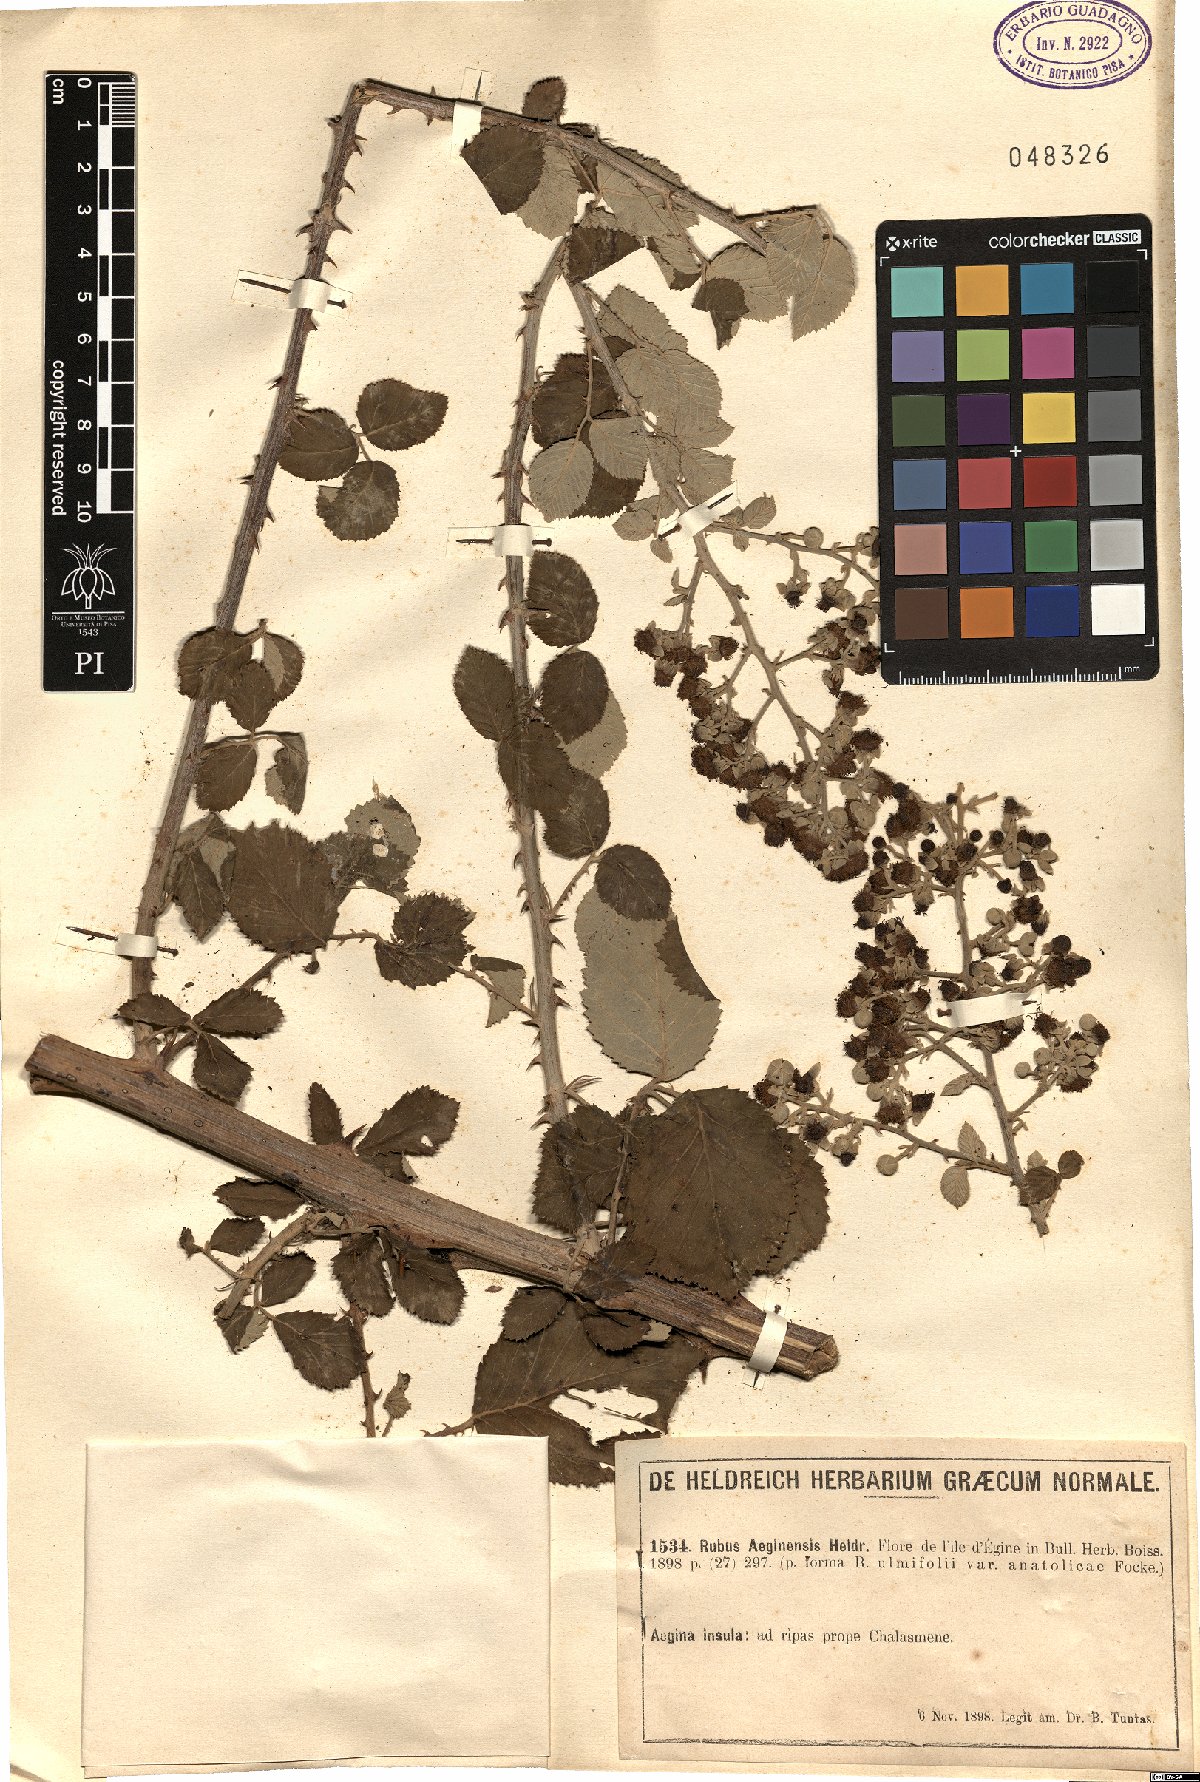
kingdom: Plantae
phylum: Tracheophyta
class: Magnoliopsida
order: Rosales
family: Rosaceae
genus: Rubus
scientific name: Rubus
